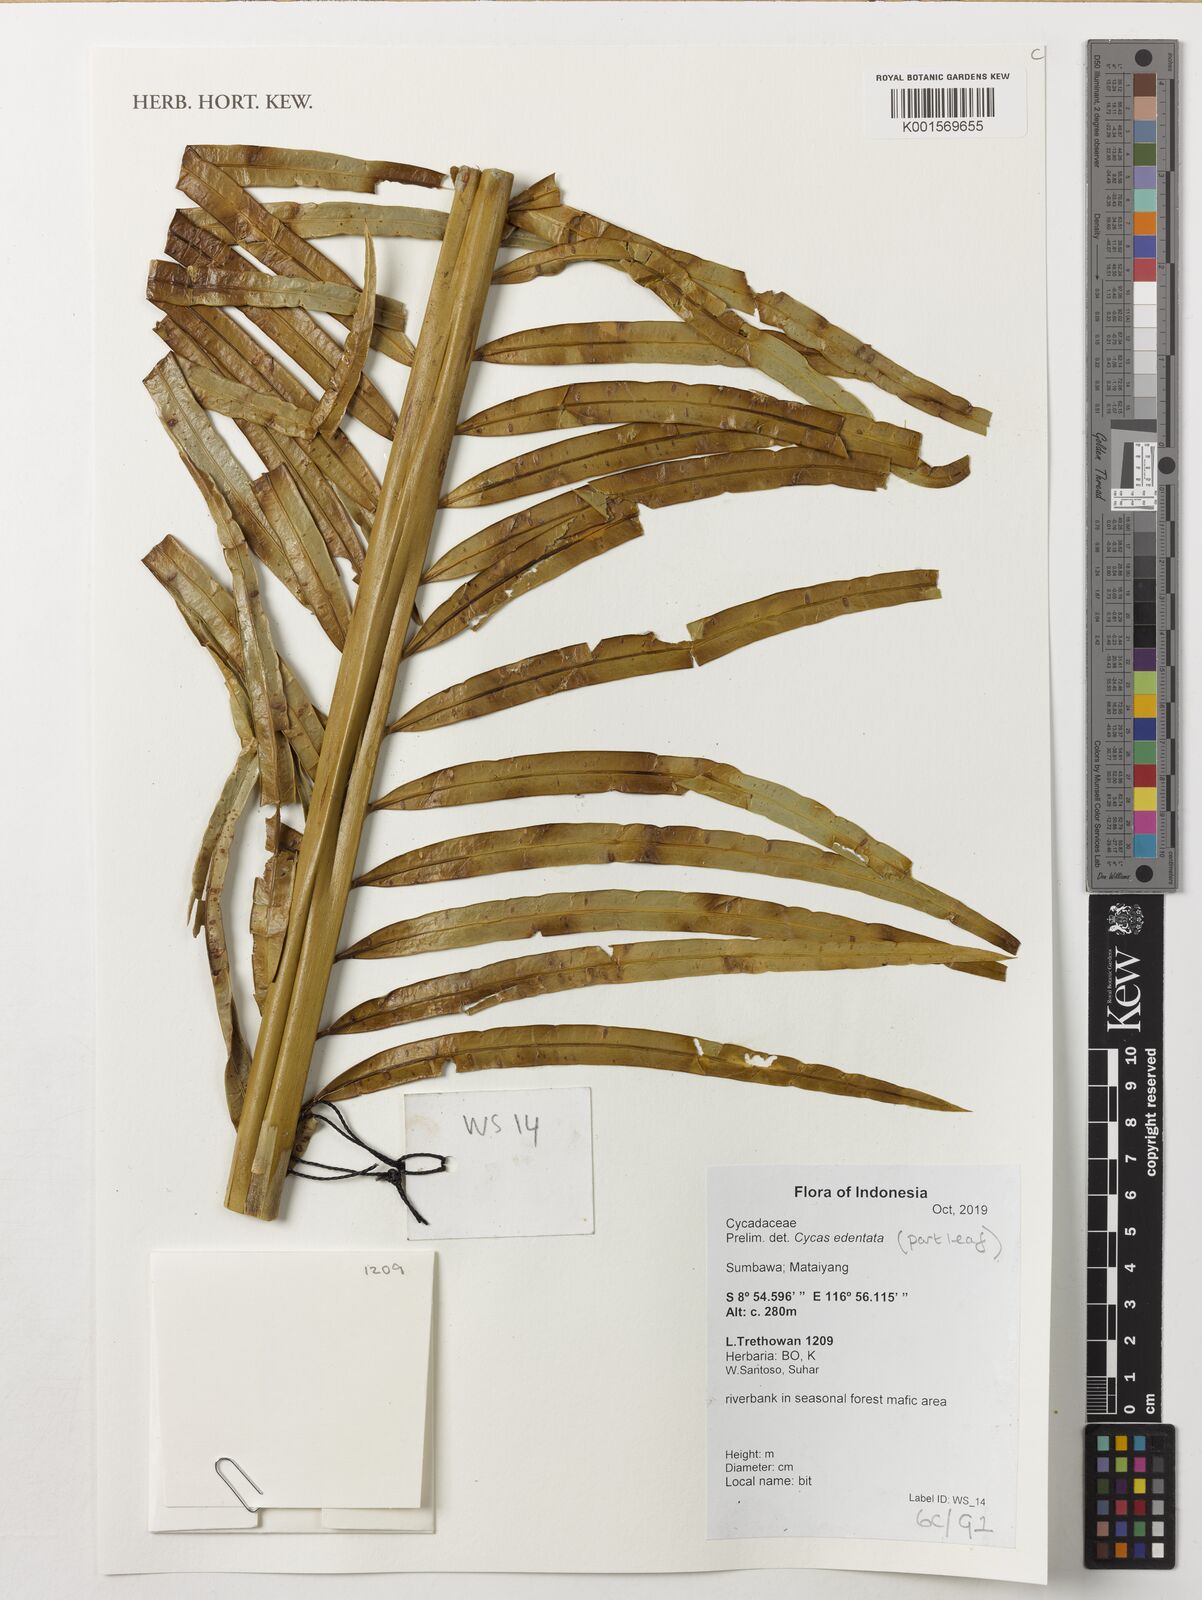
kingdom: Plantae
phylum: Tracheophyta
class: Cycadopsida
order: Cycadales
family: Cycadaceae
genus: Cycas
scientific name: Cycas edentata
